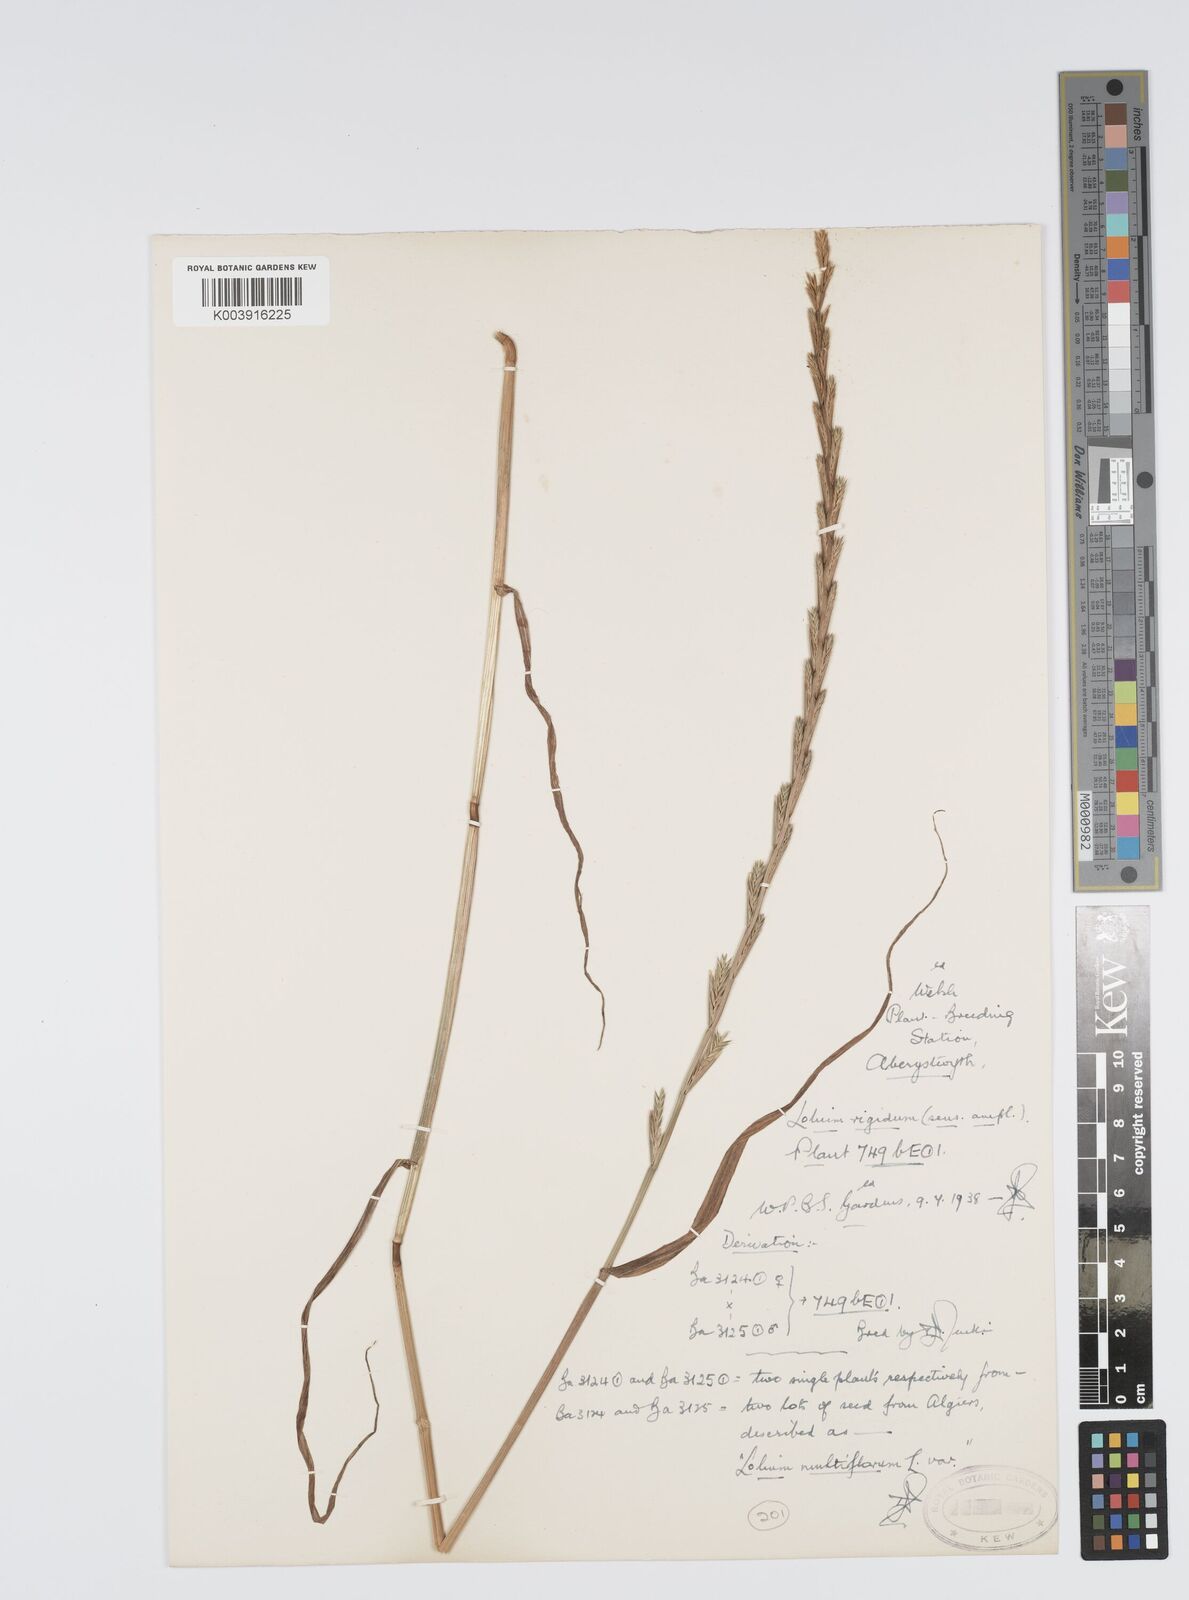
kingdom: Plantae
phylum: Tracheophyta
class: Liliopsida
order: Poales
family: Poaceae
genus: Lolium
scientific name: Lolium rigidum
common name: Wimmera ryegrass
